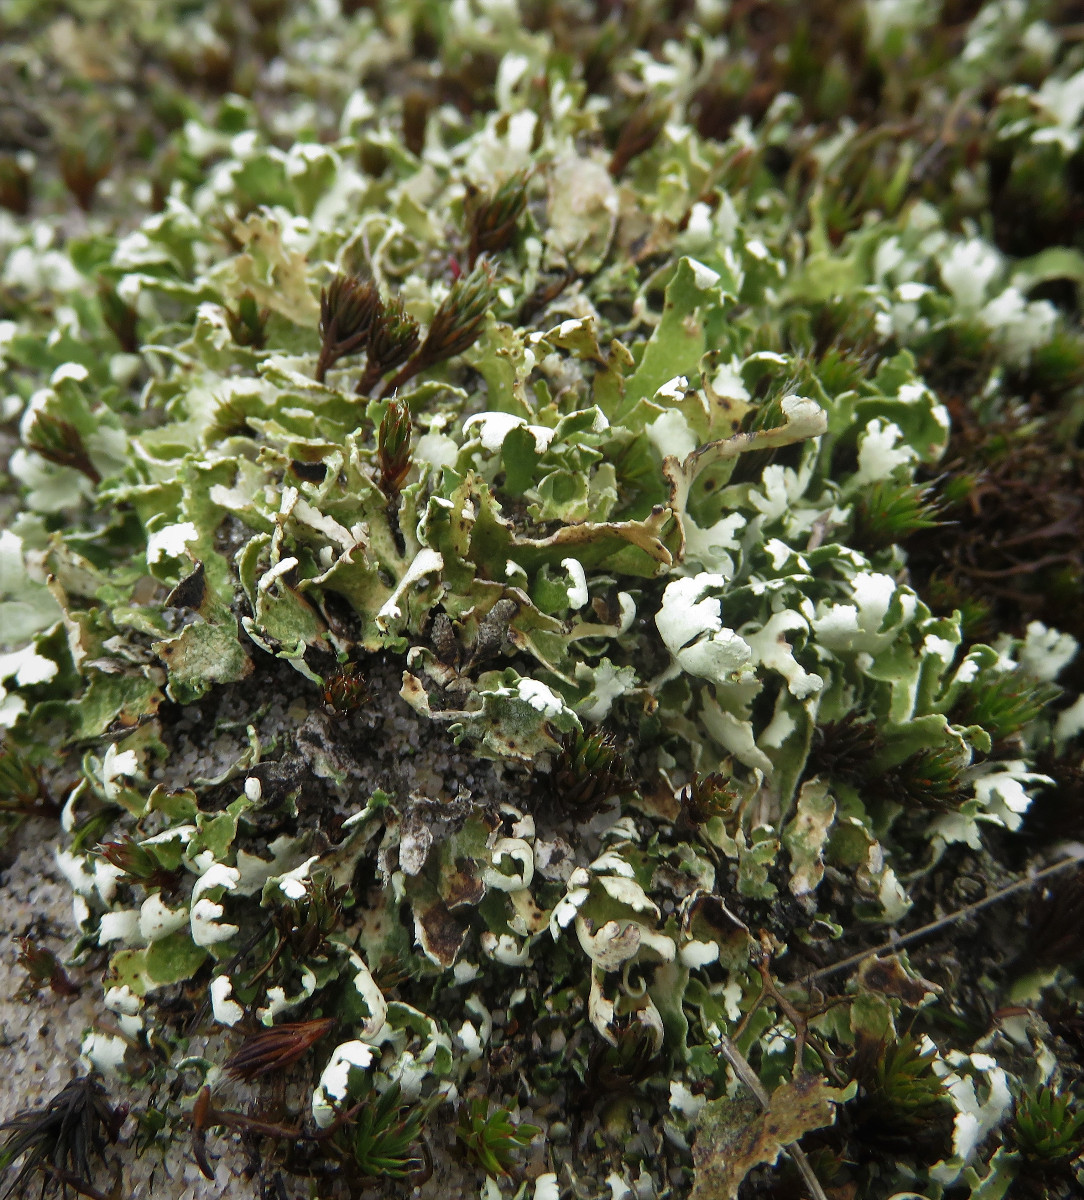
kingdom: Fungi
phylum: Ascomycota
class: Lecanoromycetes
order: Lecanorales
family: Cladoniaceae
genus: Cladonia
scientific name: Cladonia foliacea
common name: fliget bægerlav
